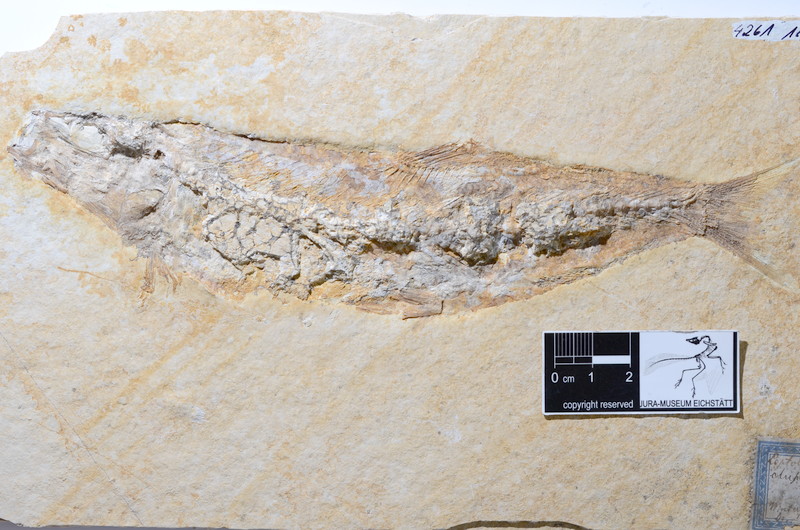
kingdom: Animalia
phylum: Chordata
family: Ascalaboidae
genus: Tharsis
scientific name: Tharsis dubius
